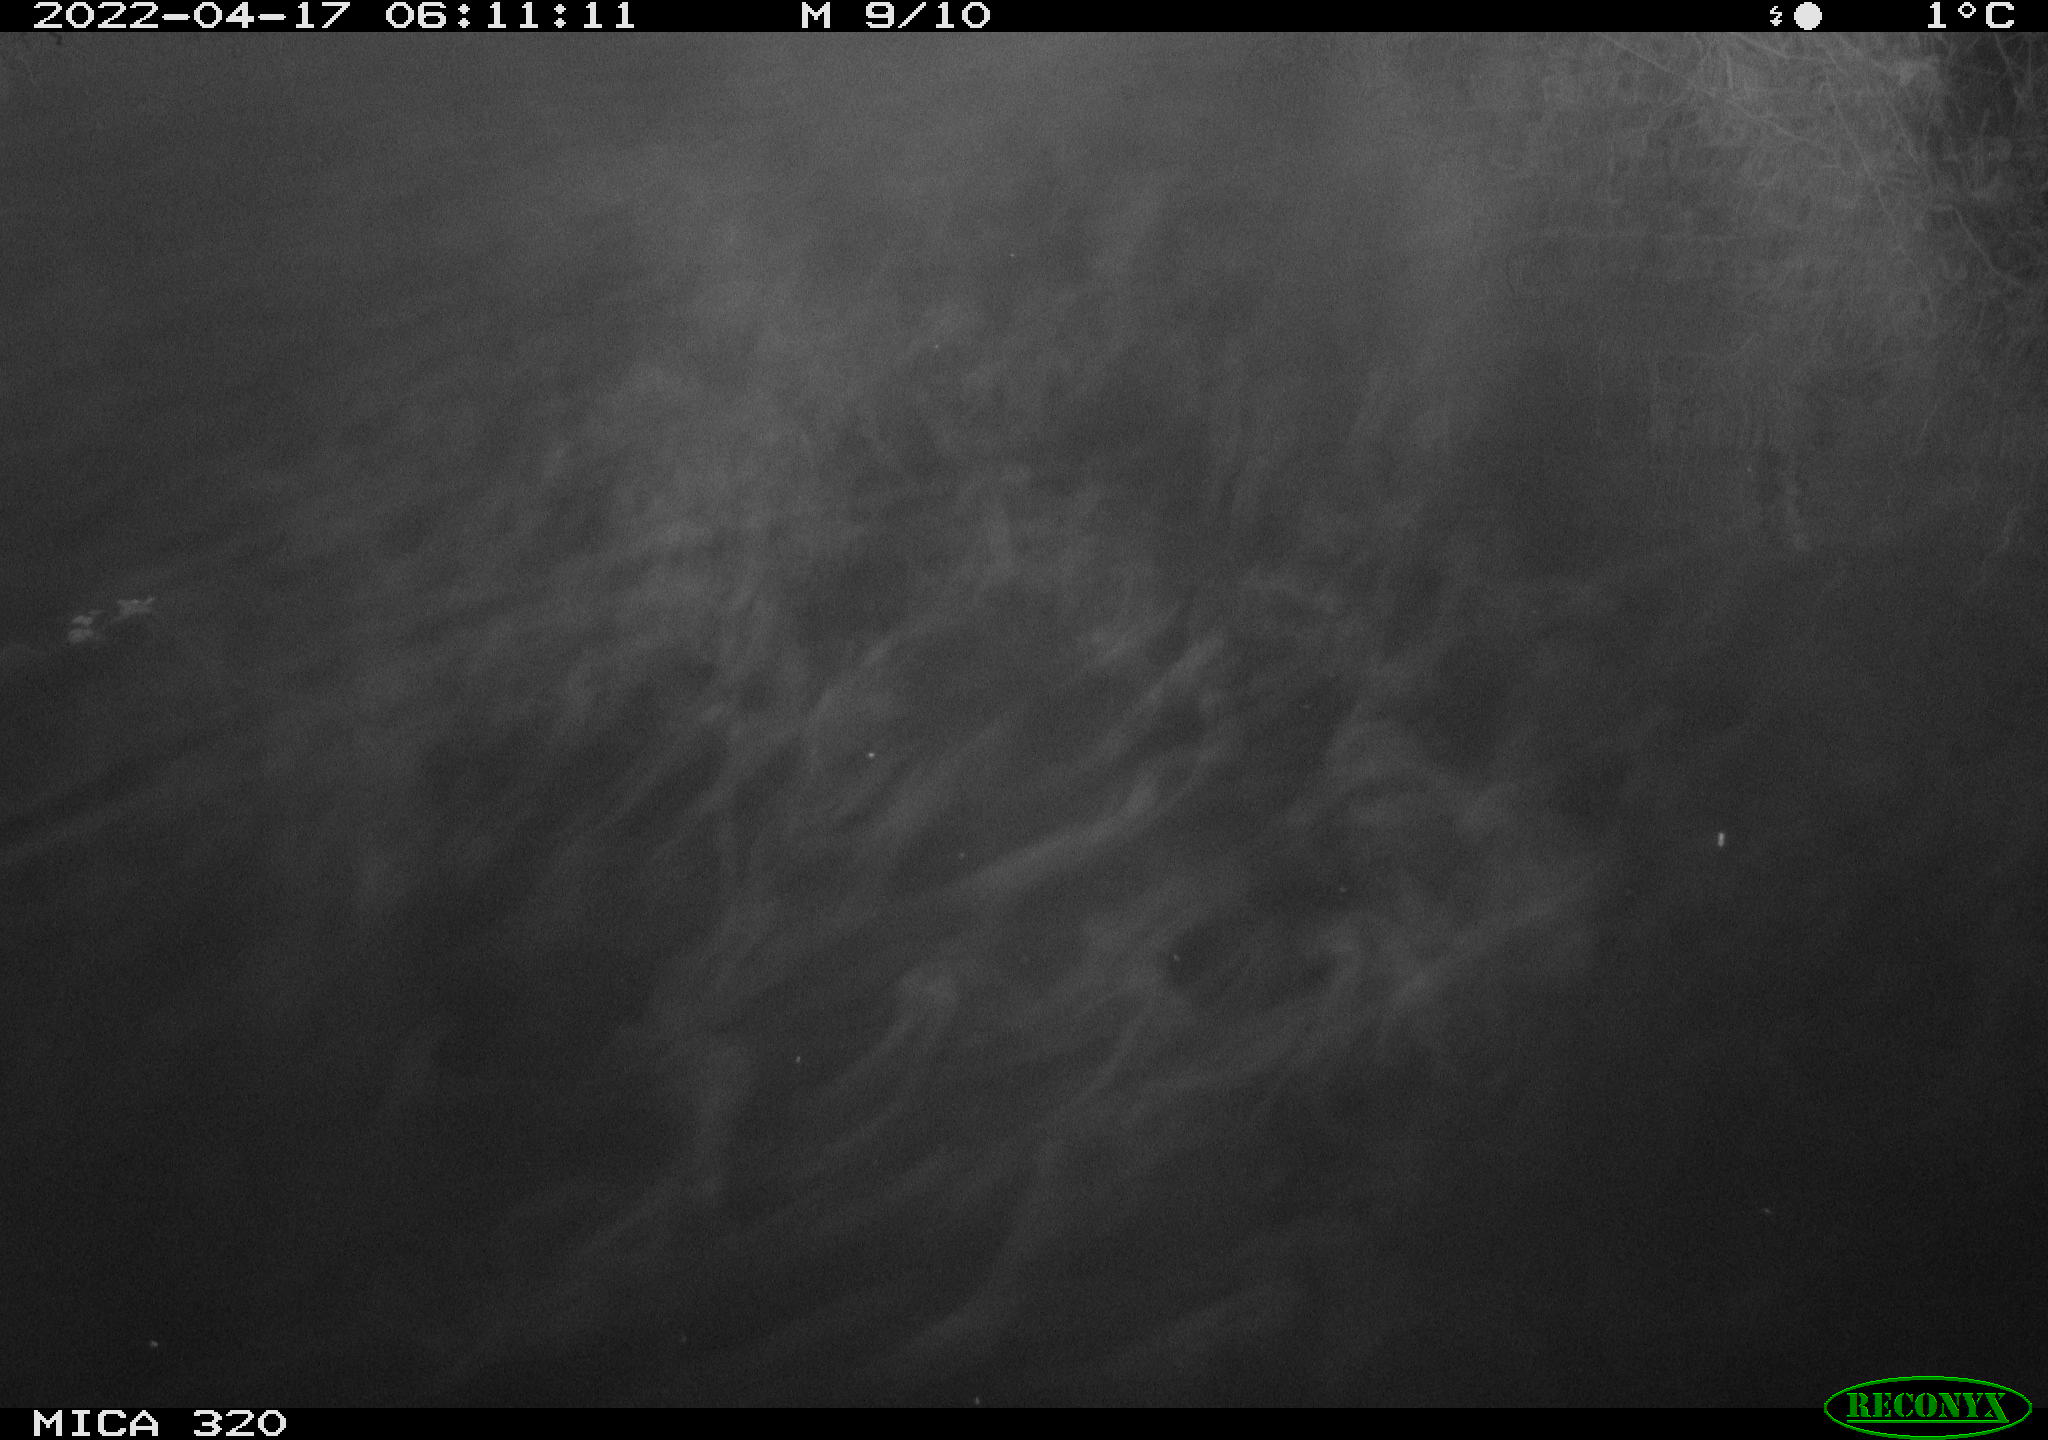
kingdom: Animalia
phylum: Chordata
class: Aves
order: Anseriformes
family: Anatidae
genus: Anas
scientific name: Anas platyrhynchos
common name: Mallard
